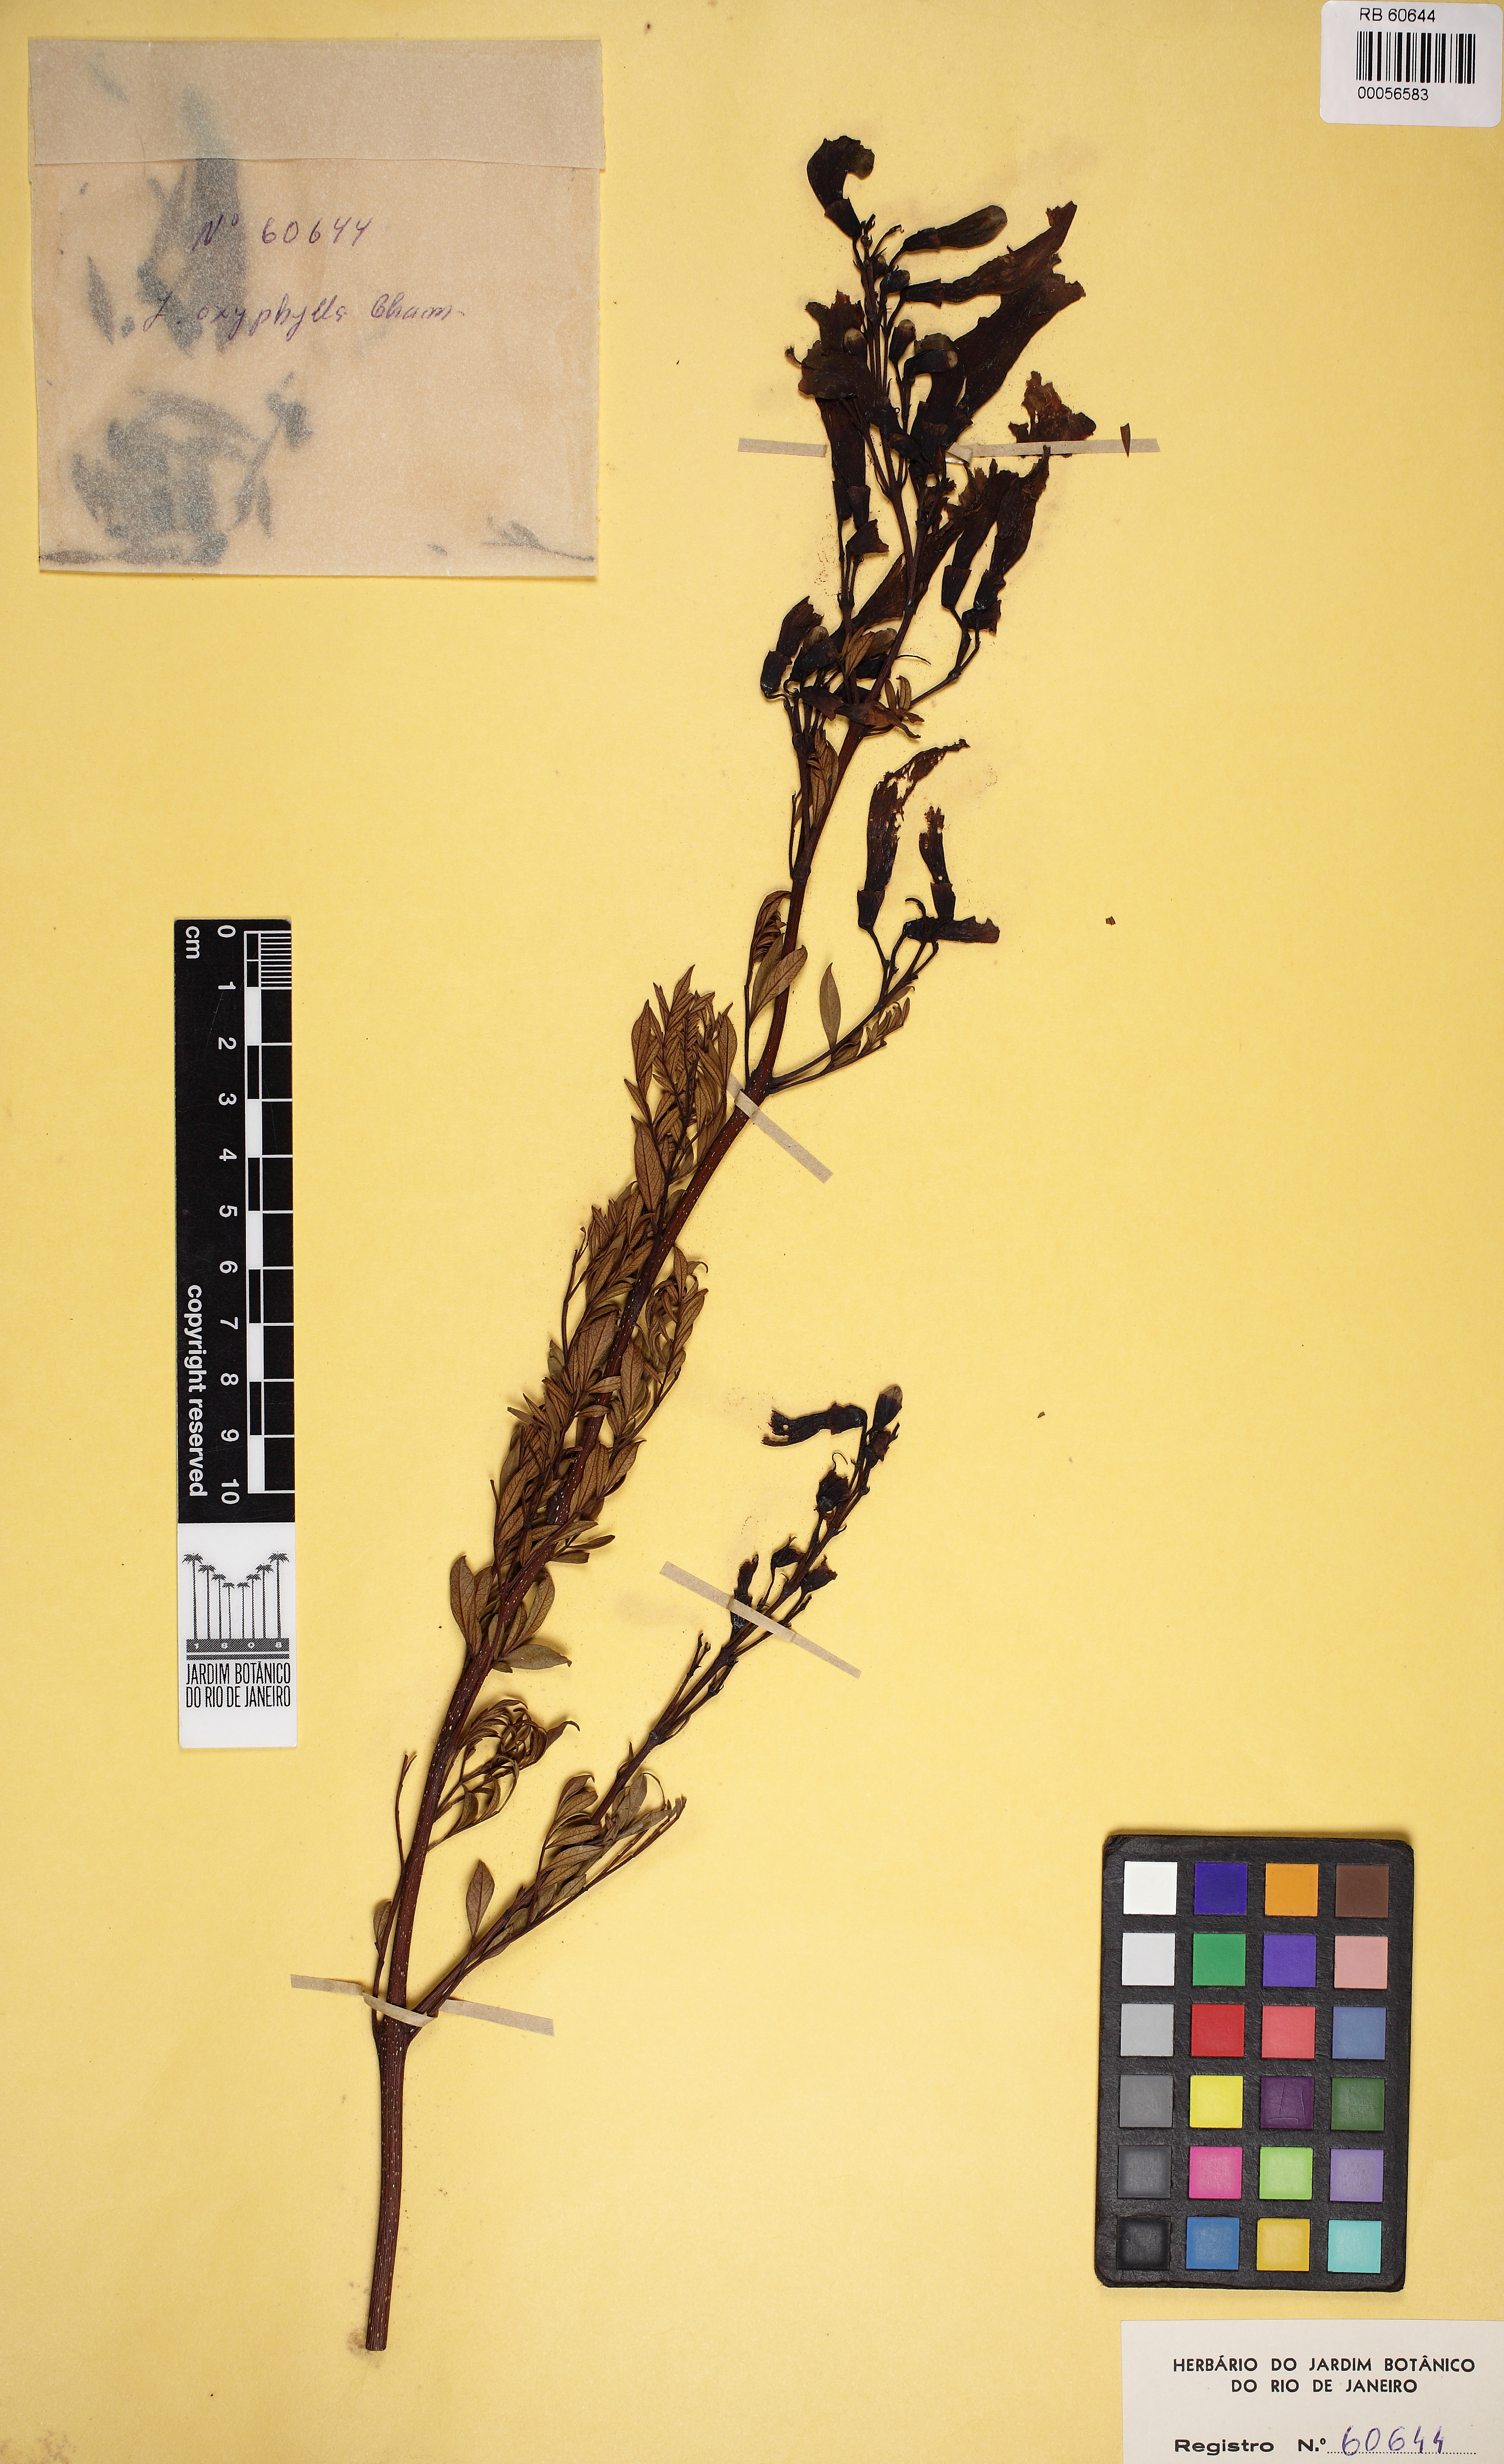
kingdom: Plantae
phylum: Tracheophyta
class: Magnoliopsida
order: Lamiales
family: Bignoniaceae
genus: Jacaranda
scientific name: Jacaranda caroba
